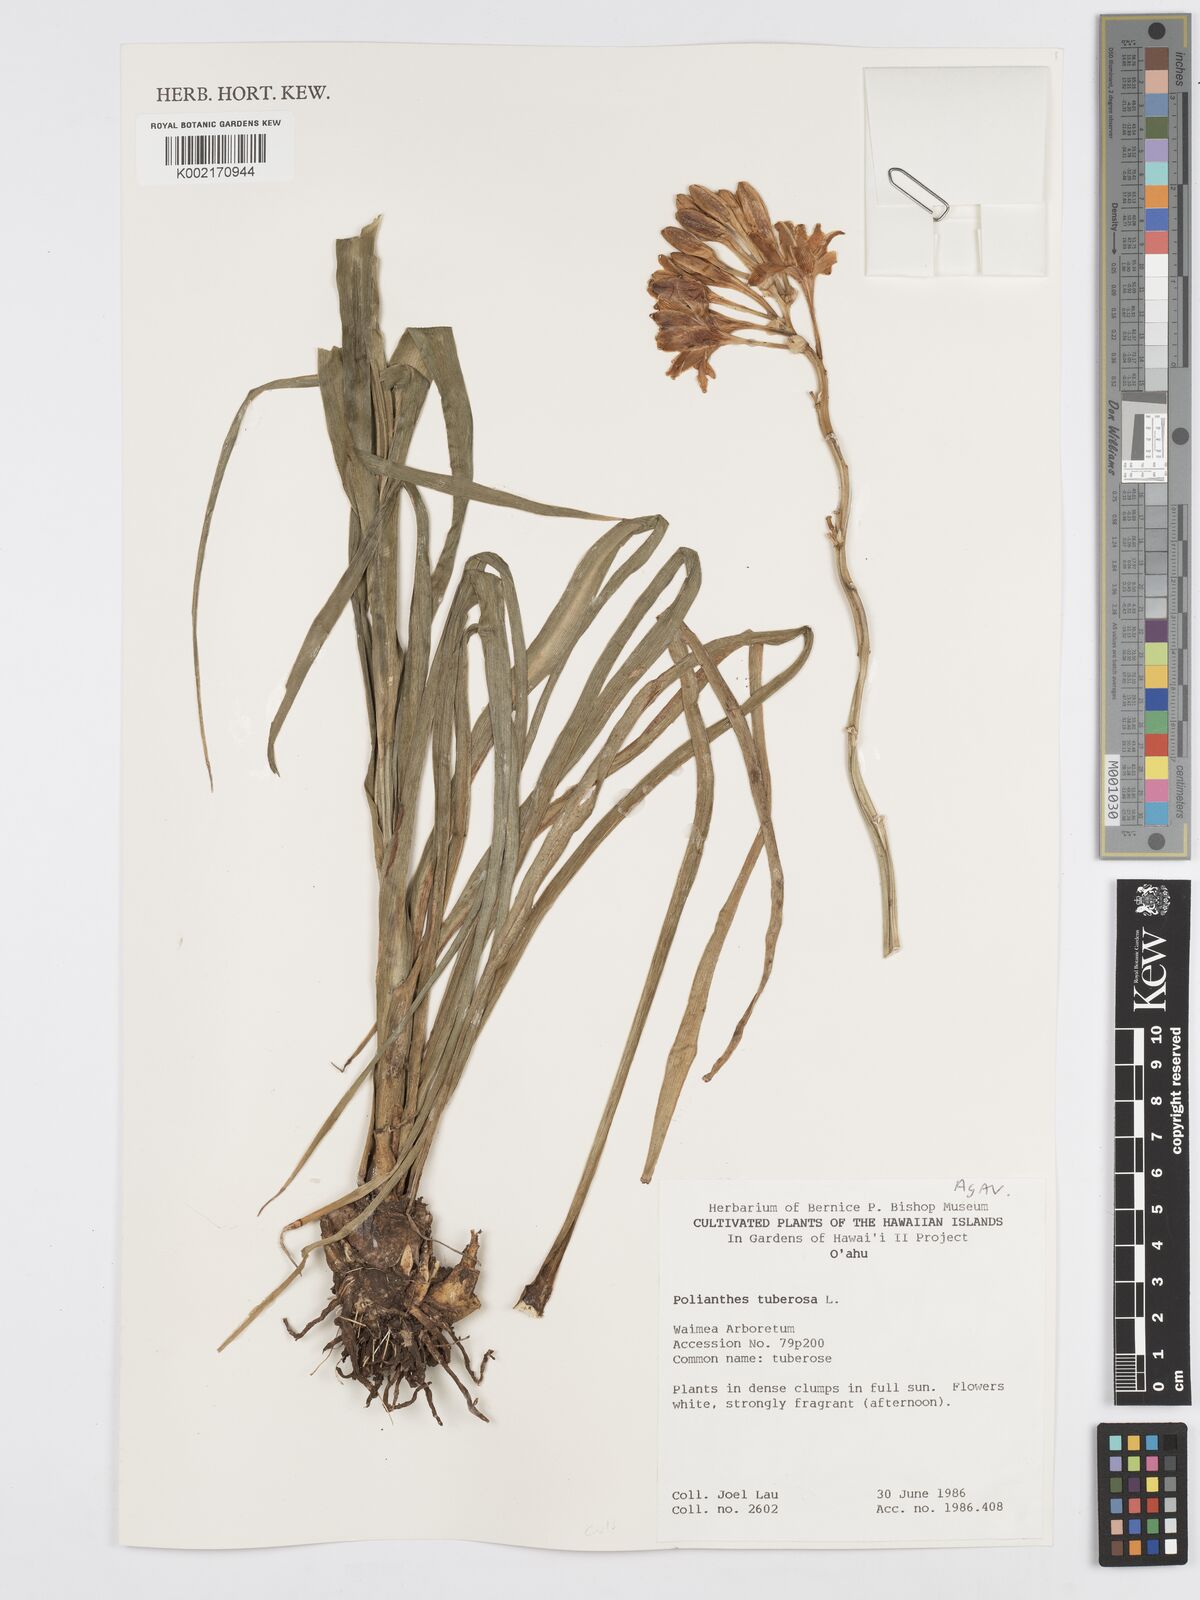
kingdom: Plantae
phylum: Tracheophyta
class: Liliopsida
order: Asparagales
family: Asparagaceae
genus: Agave
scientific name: Agave amica
